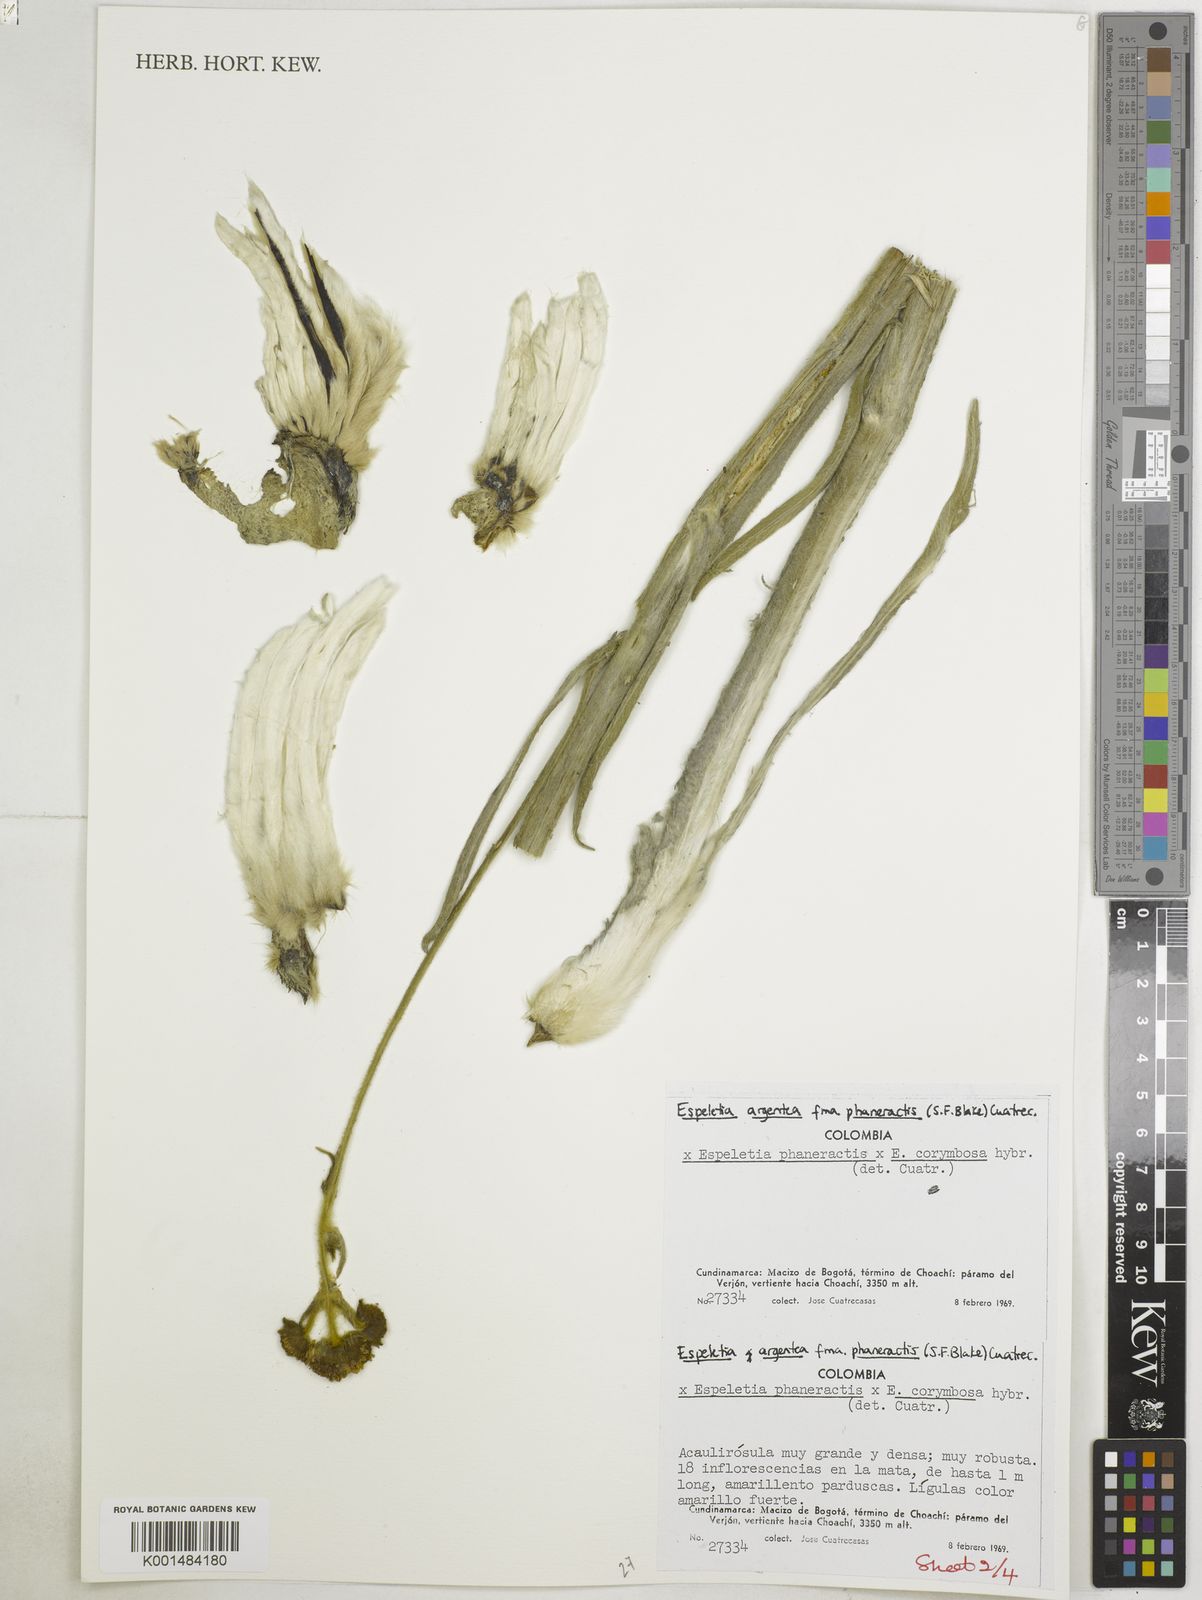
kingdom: Plantae
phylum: Tracheophyta
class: Magnoliopsida
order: Asterales
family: Asteraceae
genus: Espeletia
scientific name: Espeletia argentea
